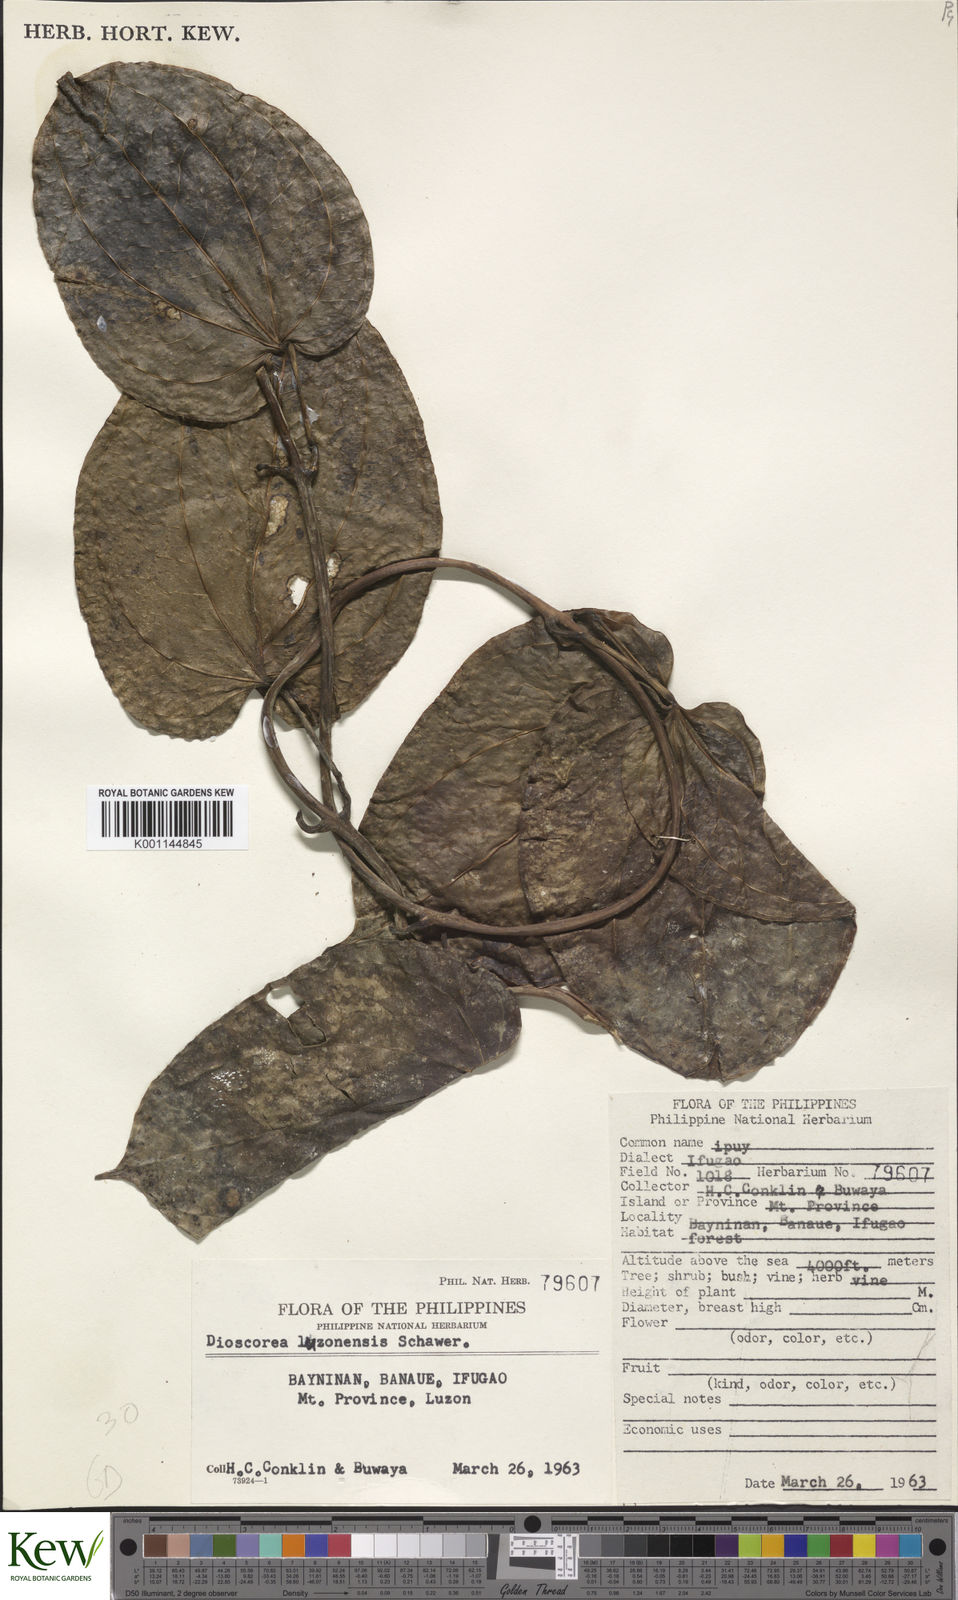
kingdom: Plantae
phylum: Tracheophyta
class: Liliopsida
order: Dioscoreales
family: Dioscoreaceae
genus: Dioscorea
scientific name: Dioscorea luzonensis
